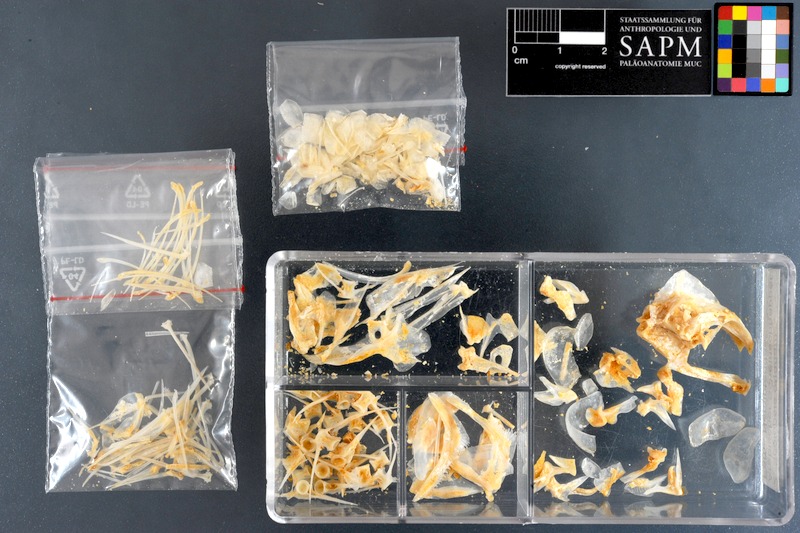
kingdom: Animalia
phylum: Chordata
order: Perciformes
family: Nemipteridae
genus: Scolopsis
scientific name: Scolopsis ghanam
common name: Arabian monocle bream
